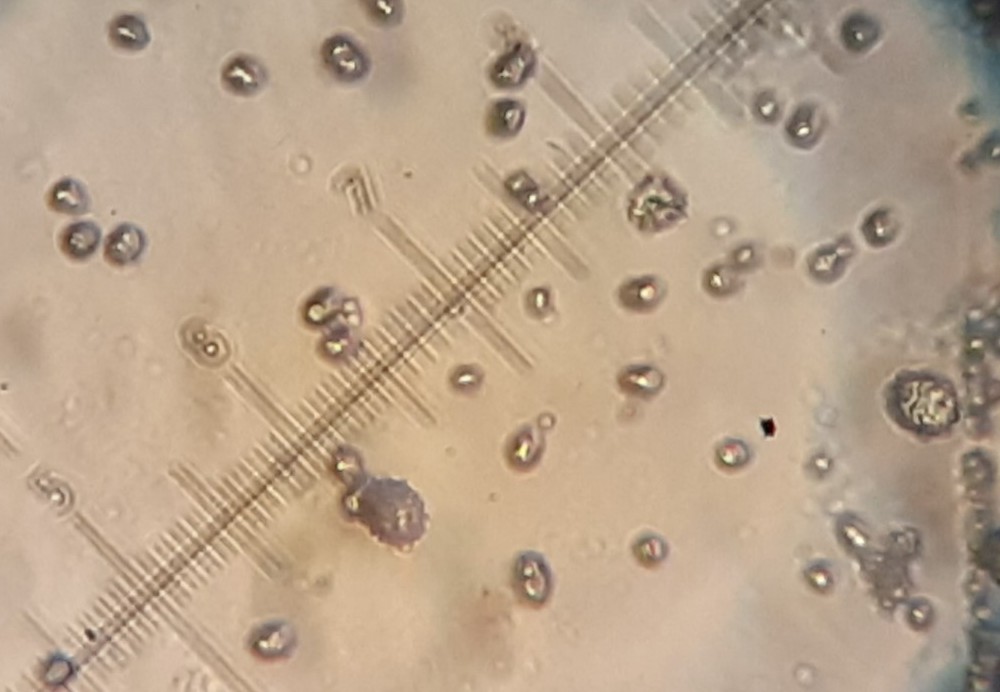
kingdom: Fungi
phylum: Basidiomycota
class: Agaricomycetes
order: Russulales
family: Russulaceae
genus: Lactarius
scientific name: Lactarius tabidus
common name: rynket mælkehat
